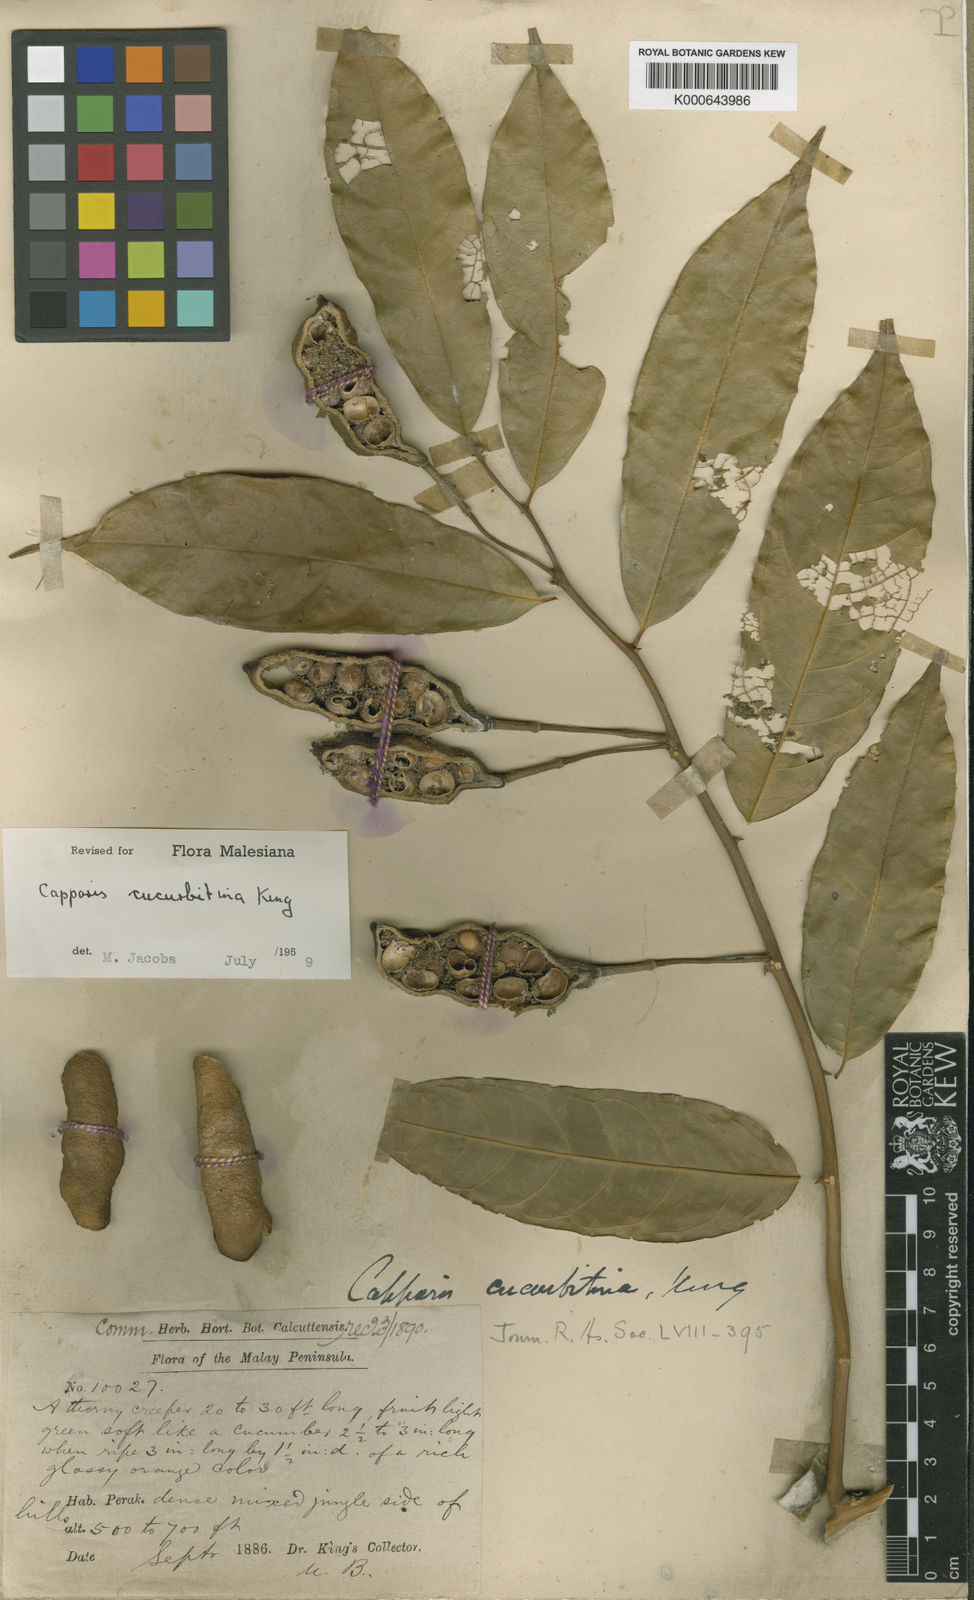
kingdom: Plantae
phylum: Tracheophyta
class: Magnoliopsida
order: Brassicales
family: Capparaceae
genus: Capparis
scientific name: Capparis cucurbitina
